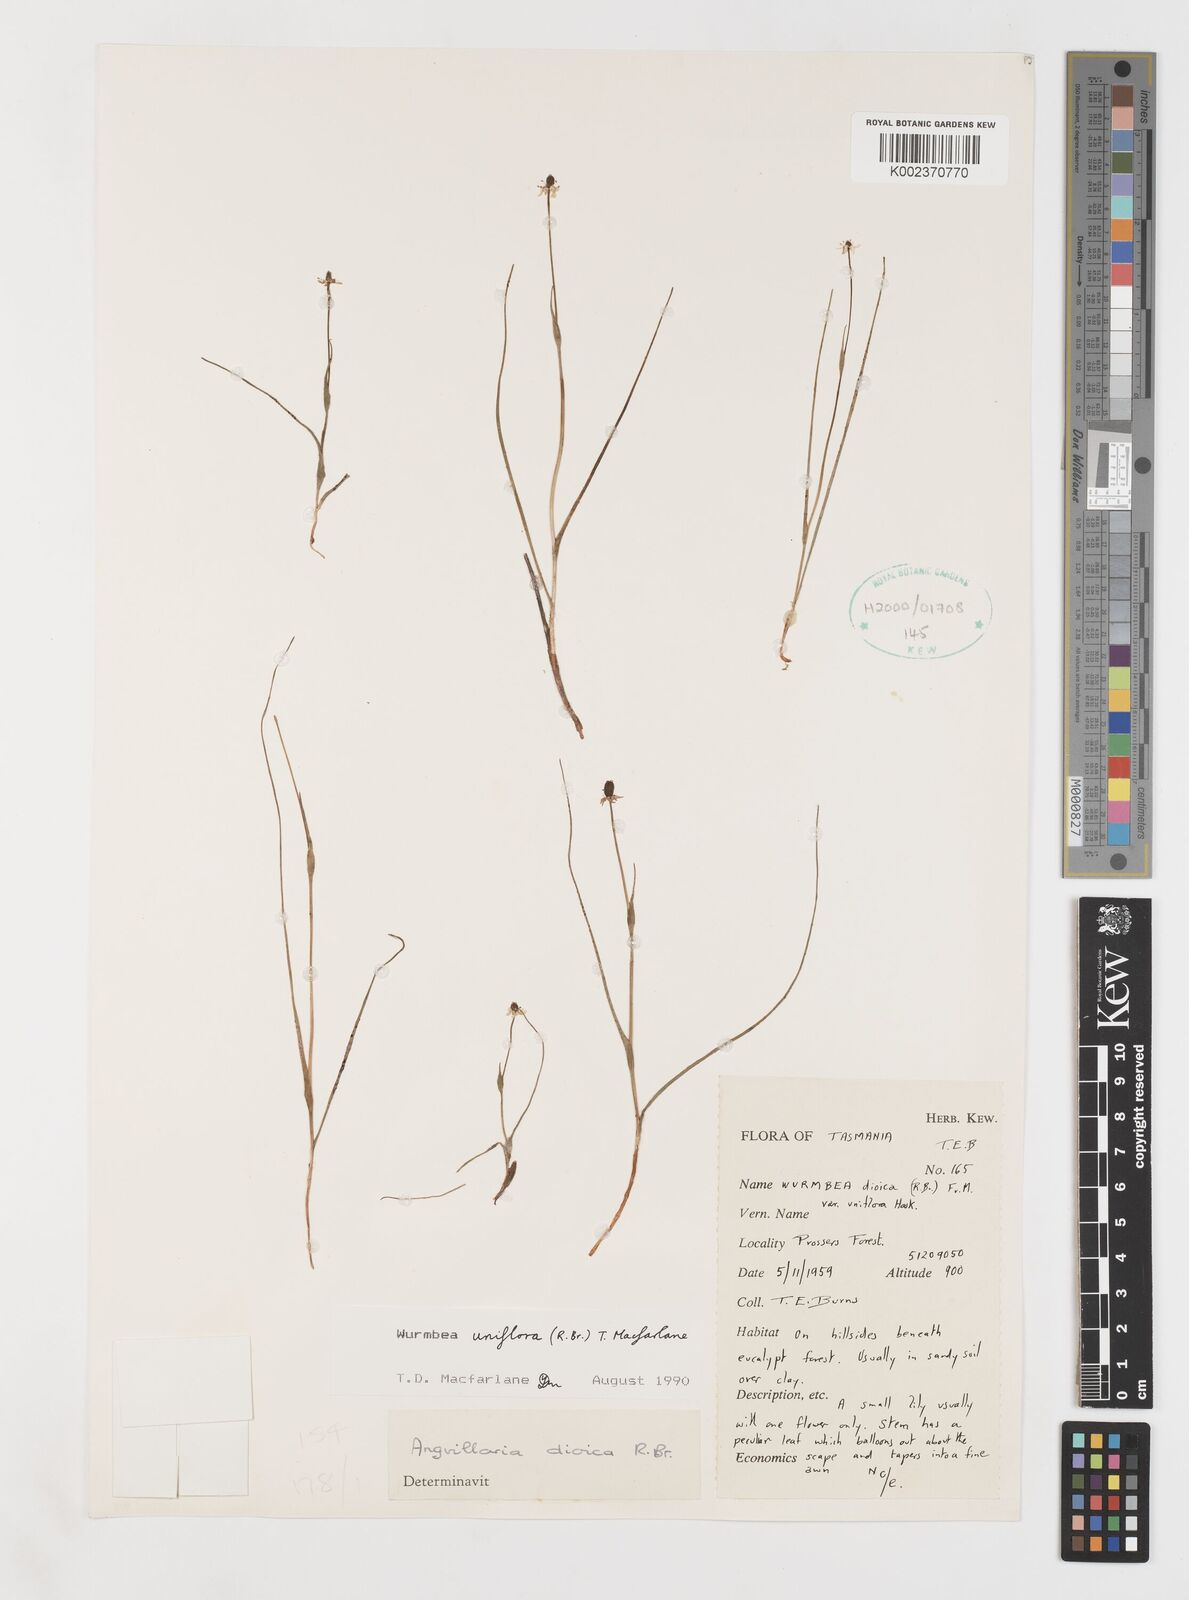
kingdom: Plantae
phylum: Tracheophyta
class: Liliopsida
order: Liliales
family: Colchicaceae
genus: Wurmbea
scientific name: Wurmbea uniflora
